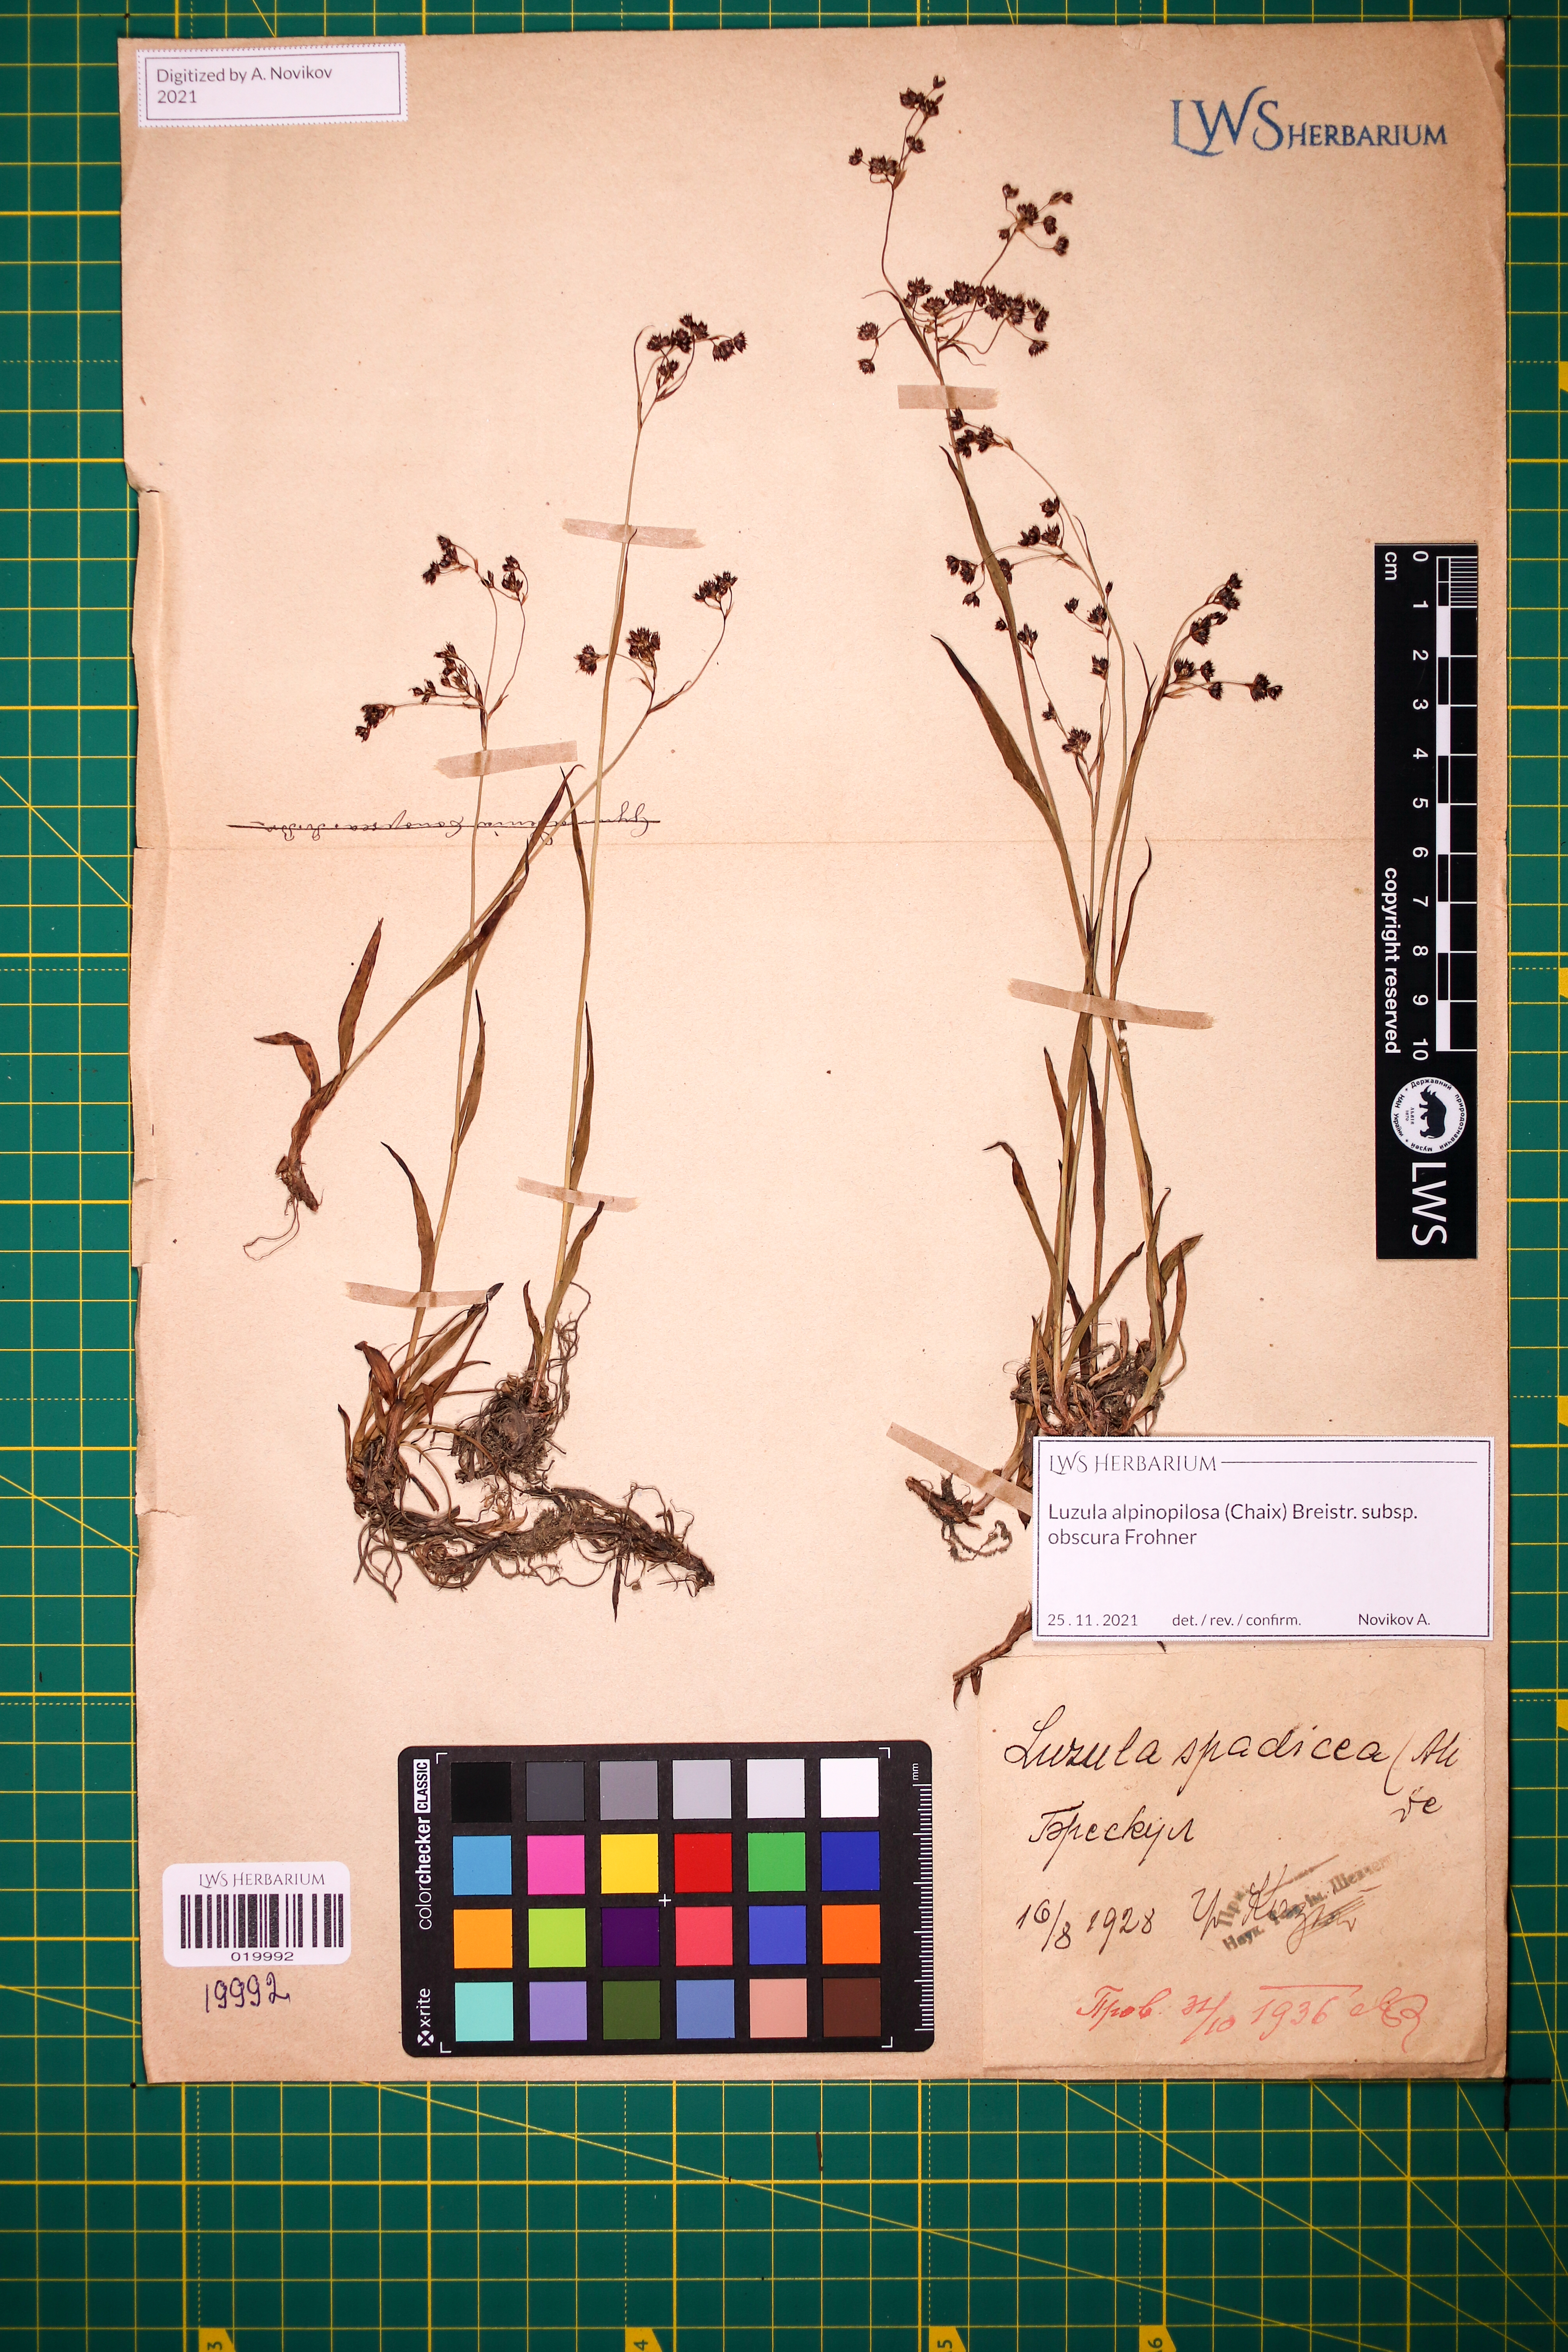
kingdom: Plantae
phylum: Tracheophyta
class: Liliopsida
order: Poales
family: Juncaceae
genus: Luzula
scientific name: Luzula alpinopilosa
